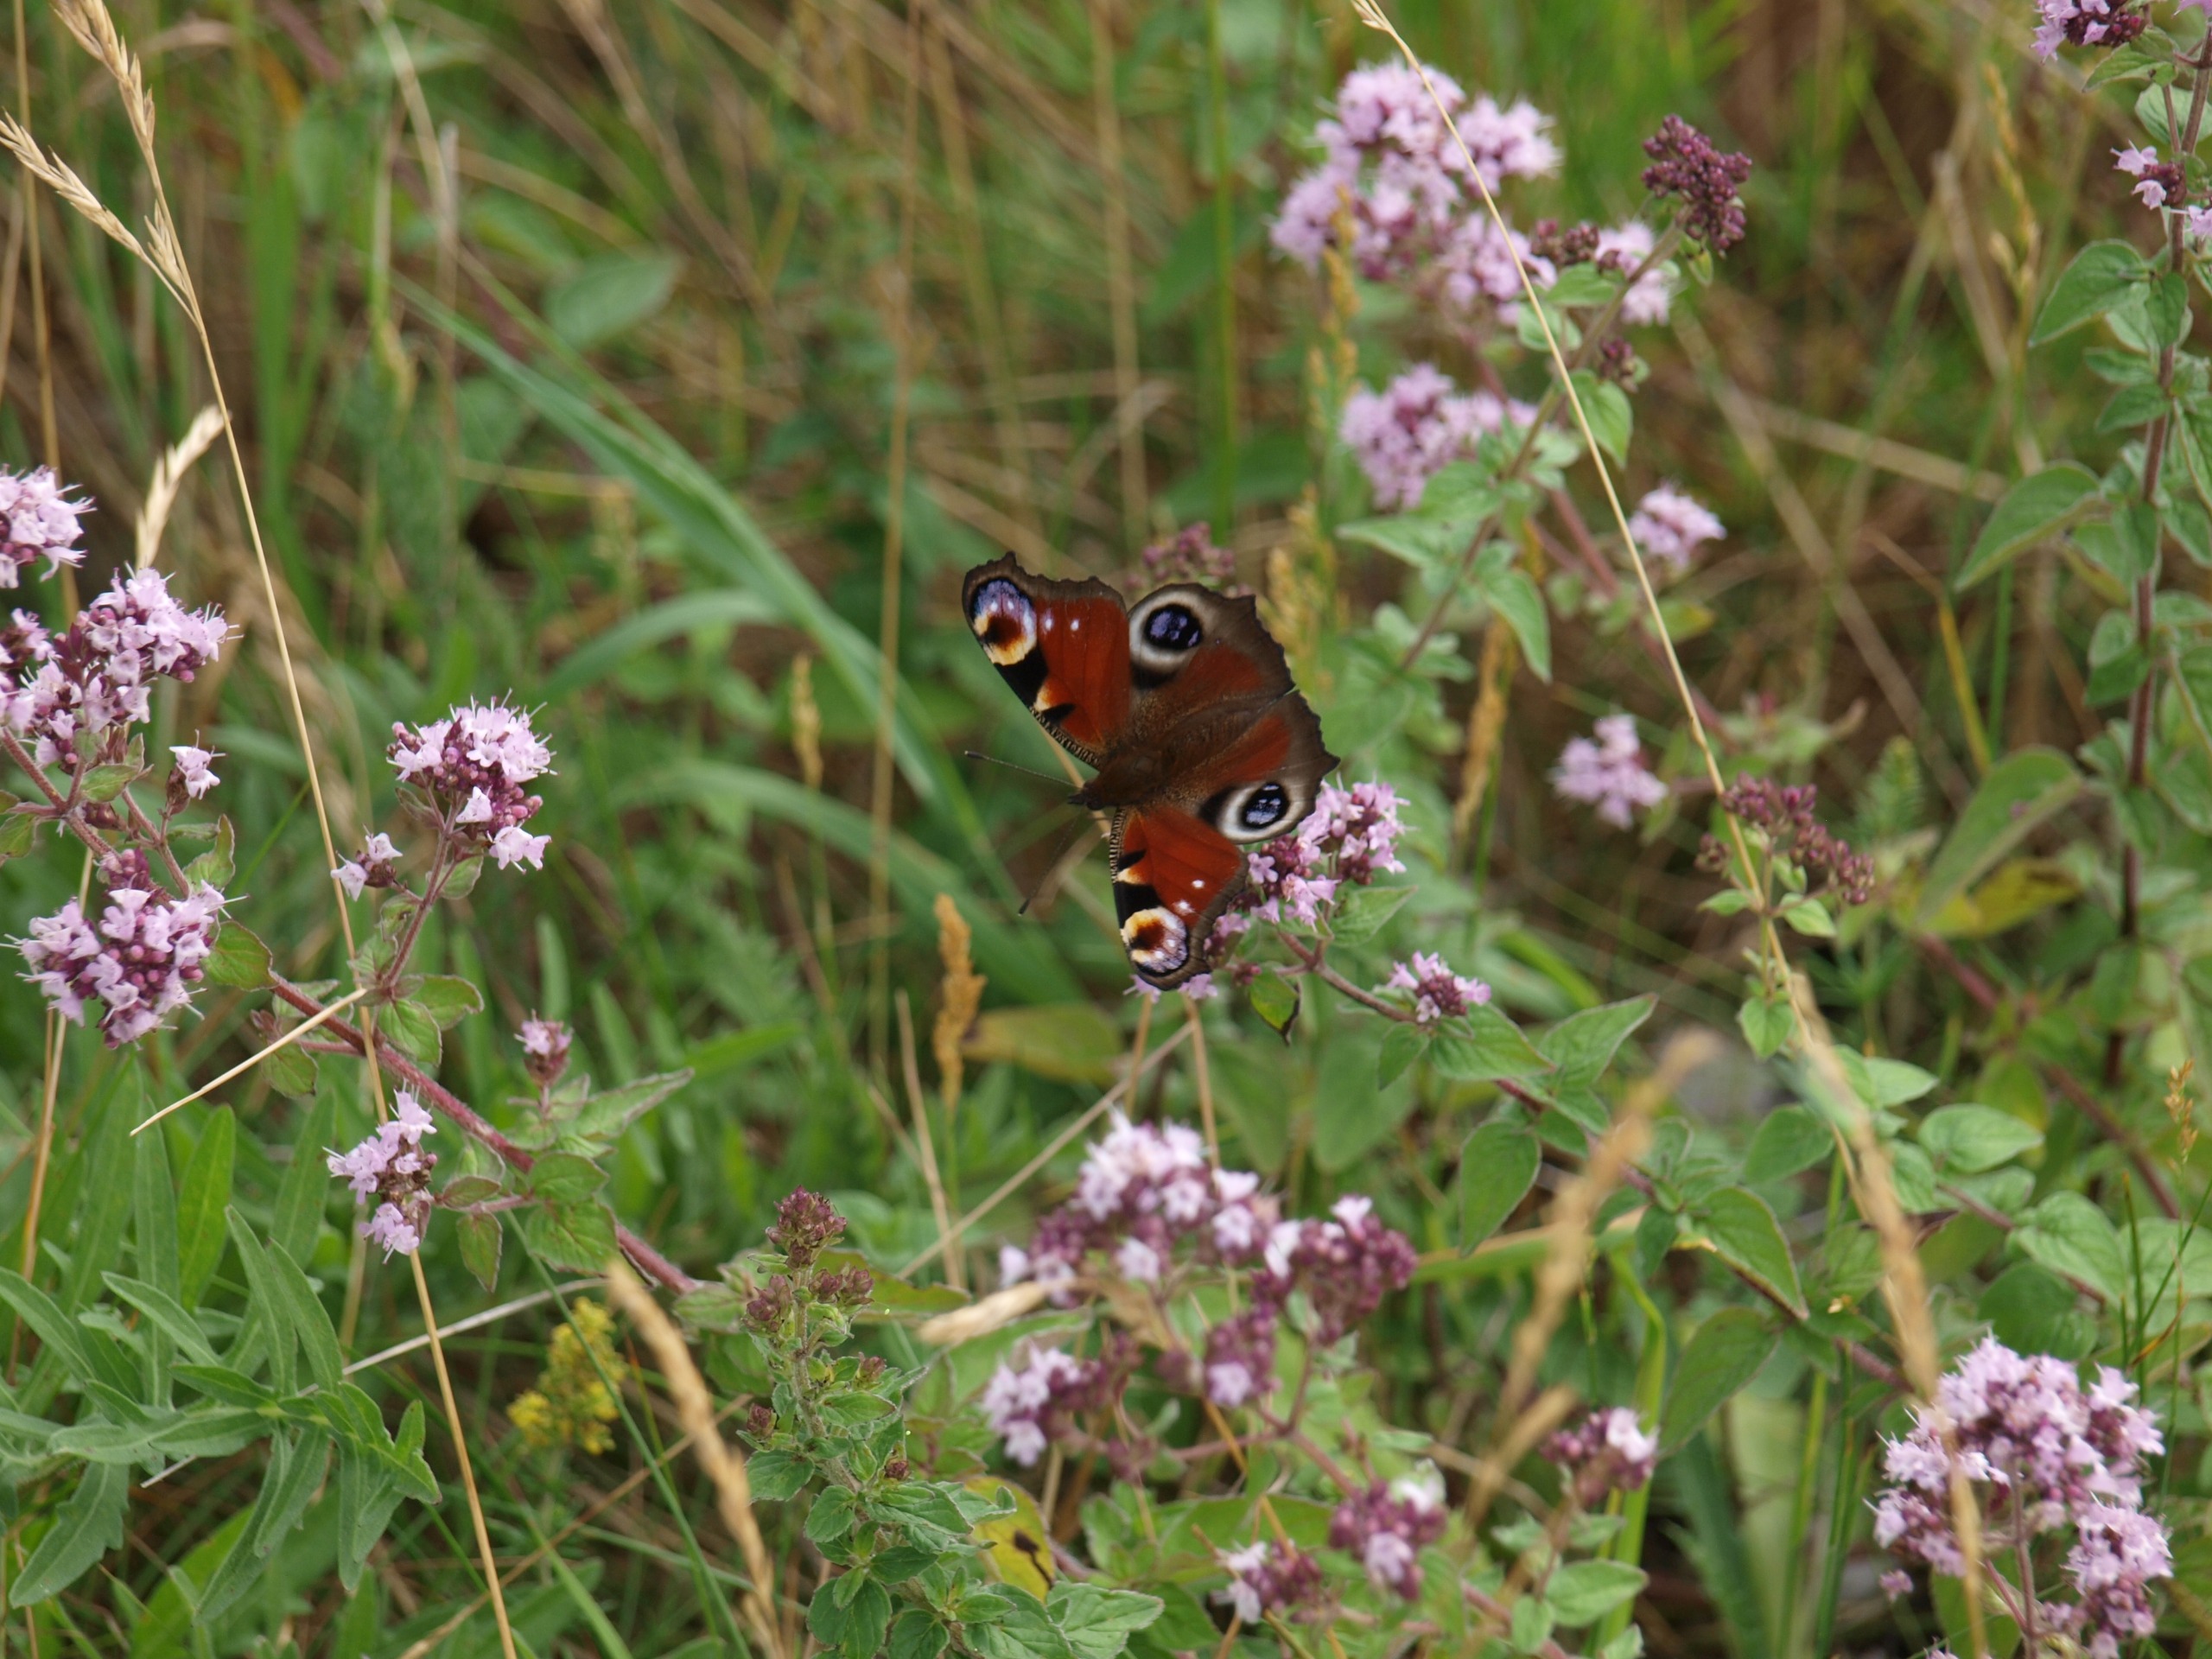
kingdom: Animalia
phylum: Arthropoda
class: Insecta
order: Lepidoptera
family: Nymphalidae
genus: Aglais
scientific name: Aglais io
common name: Dagpåfugleøje
